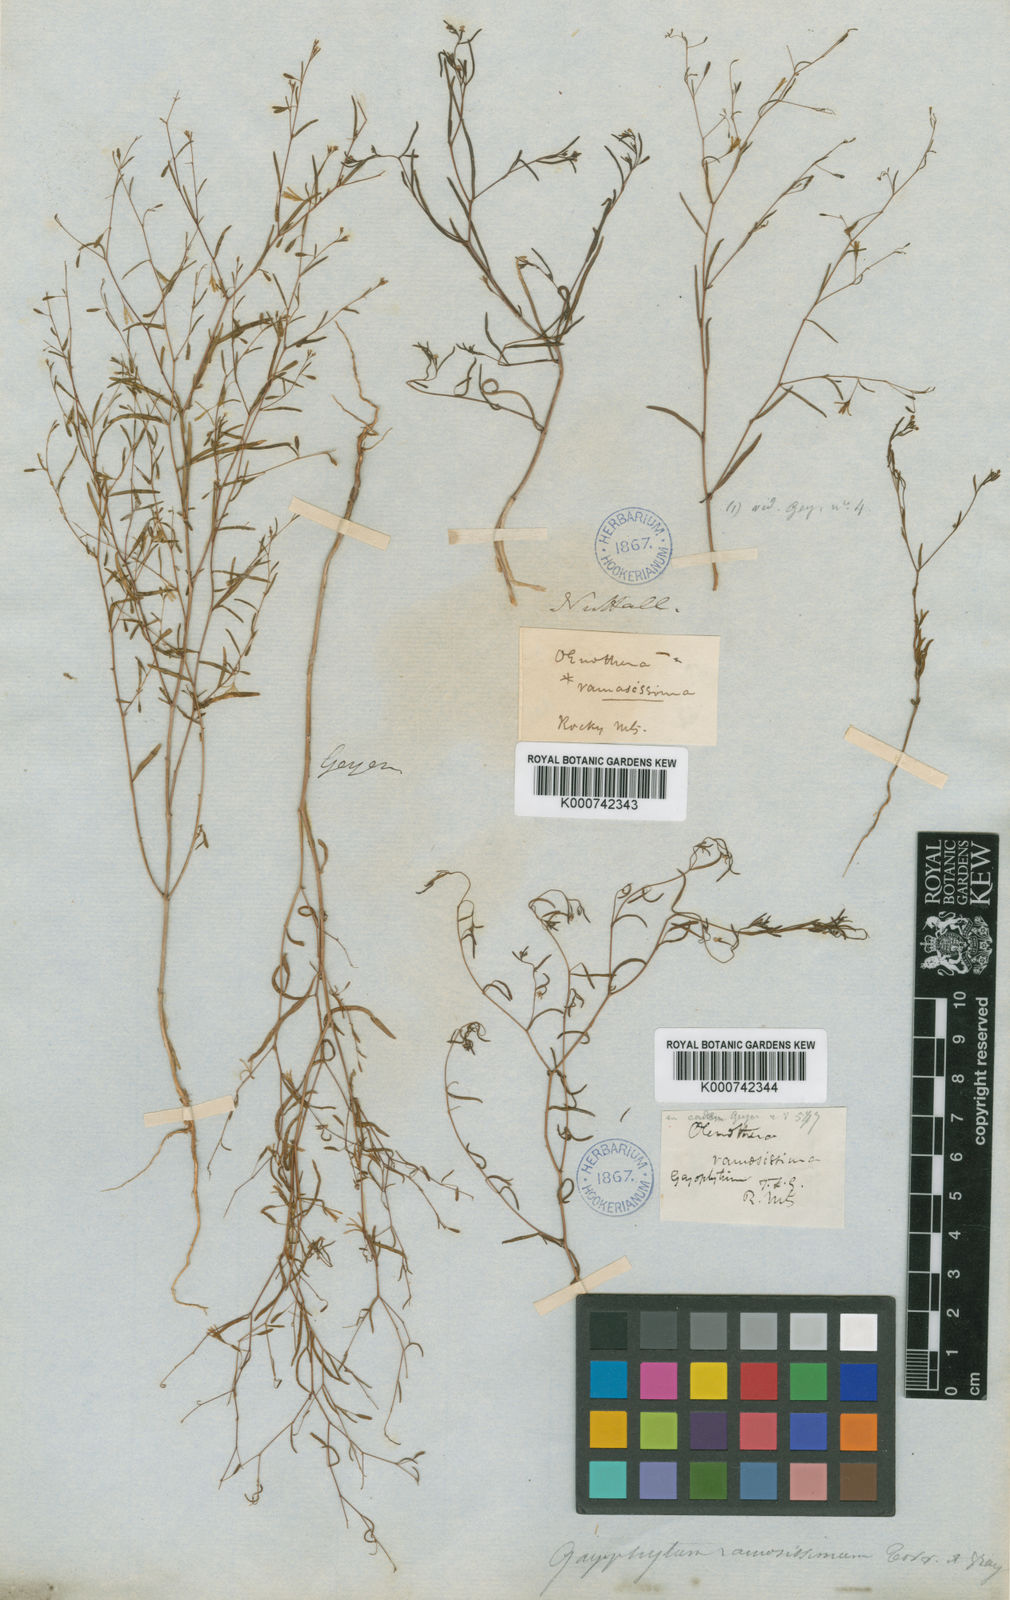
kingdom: Plantae
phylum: Tracheophyta
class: Magnoliopsida
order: Myrtales
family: Onagraceae
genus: Gayophytum
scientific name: Gayophytum ramosissimum
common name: Hairstem groundsmoke
